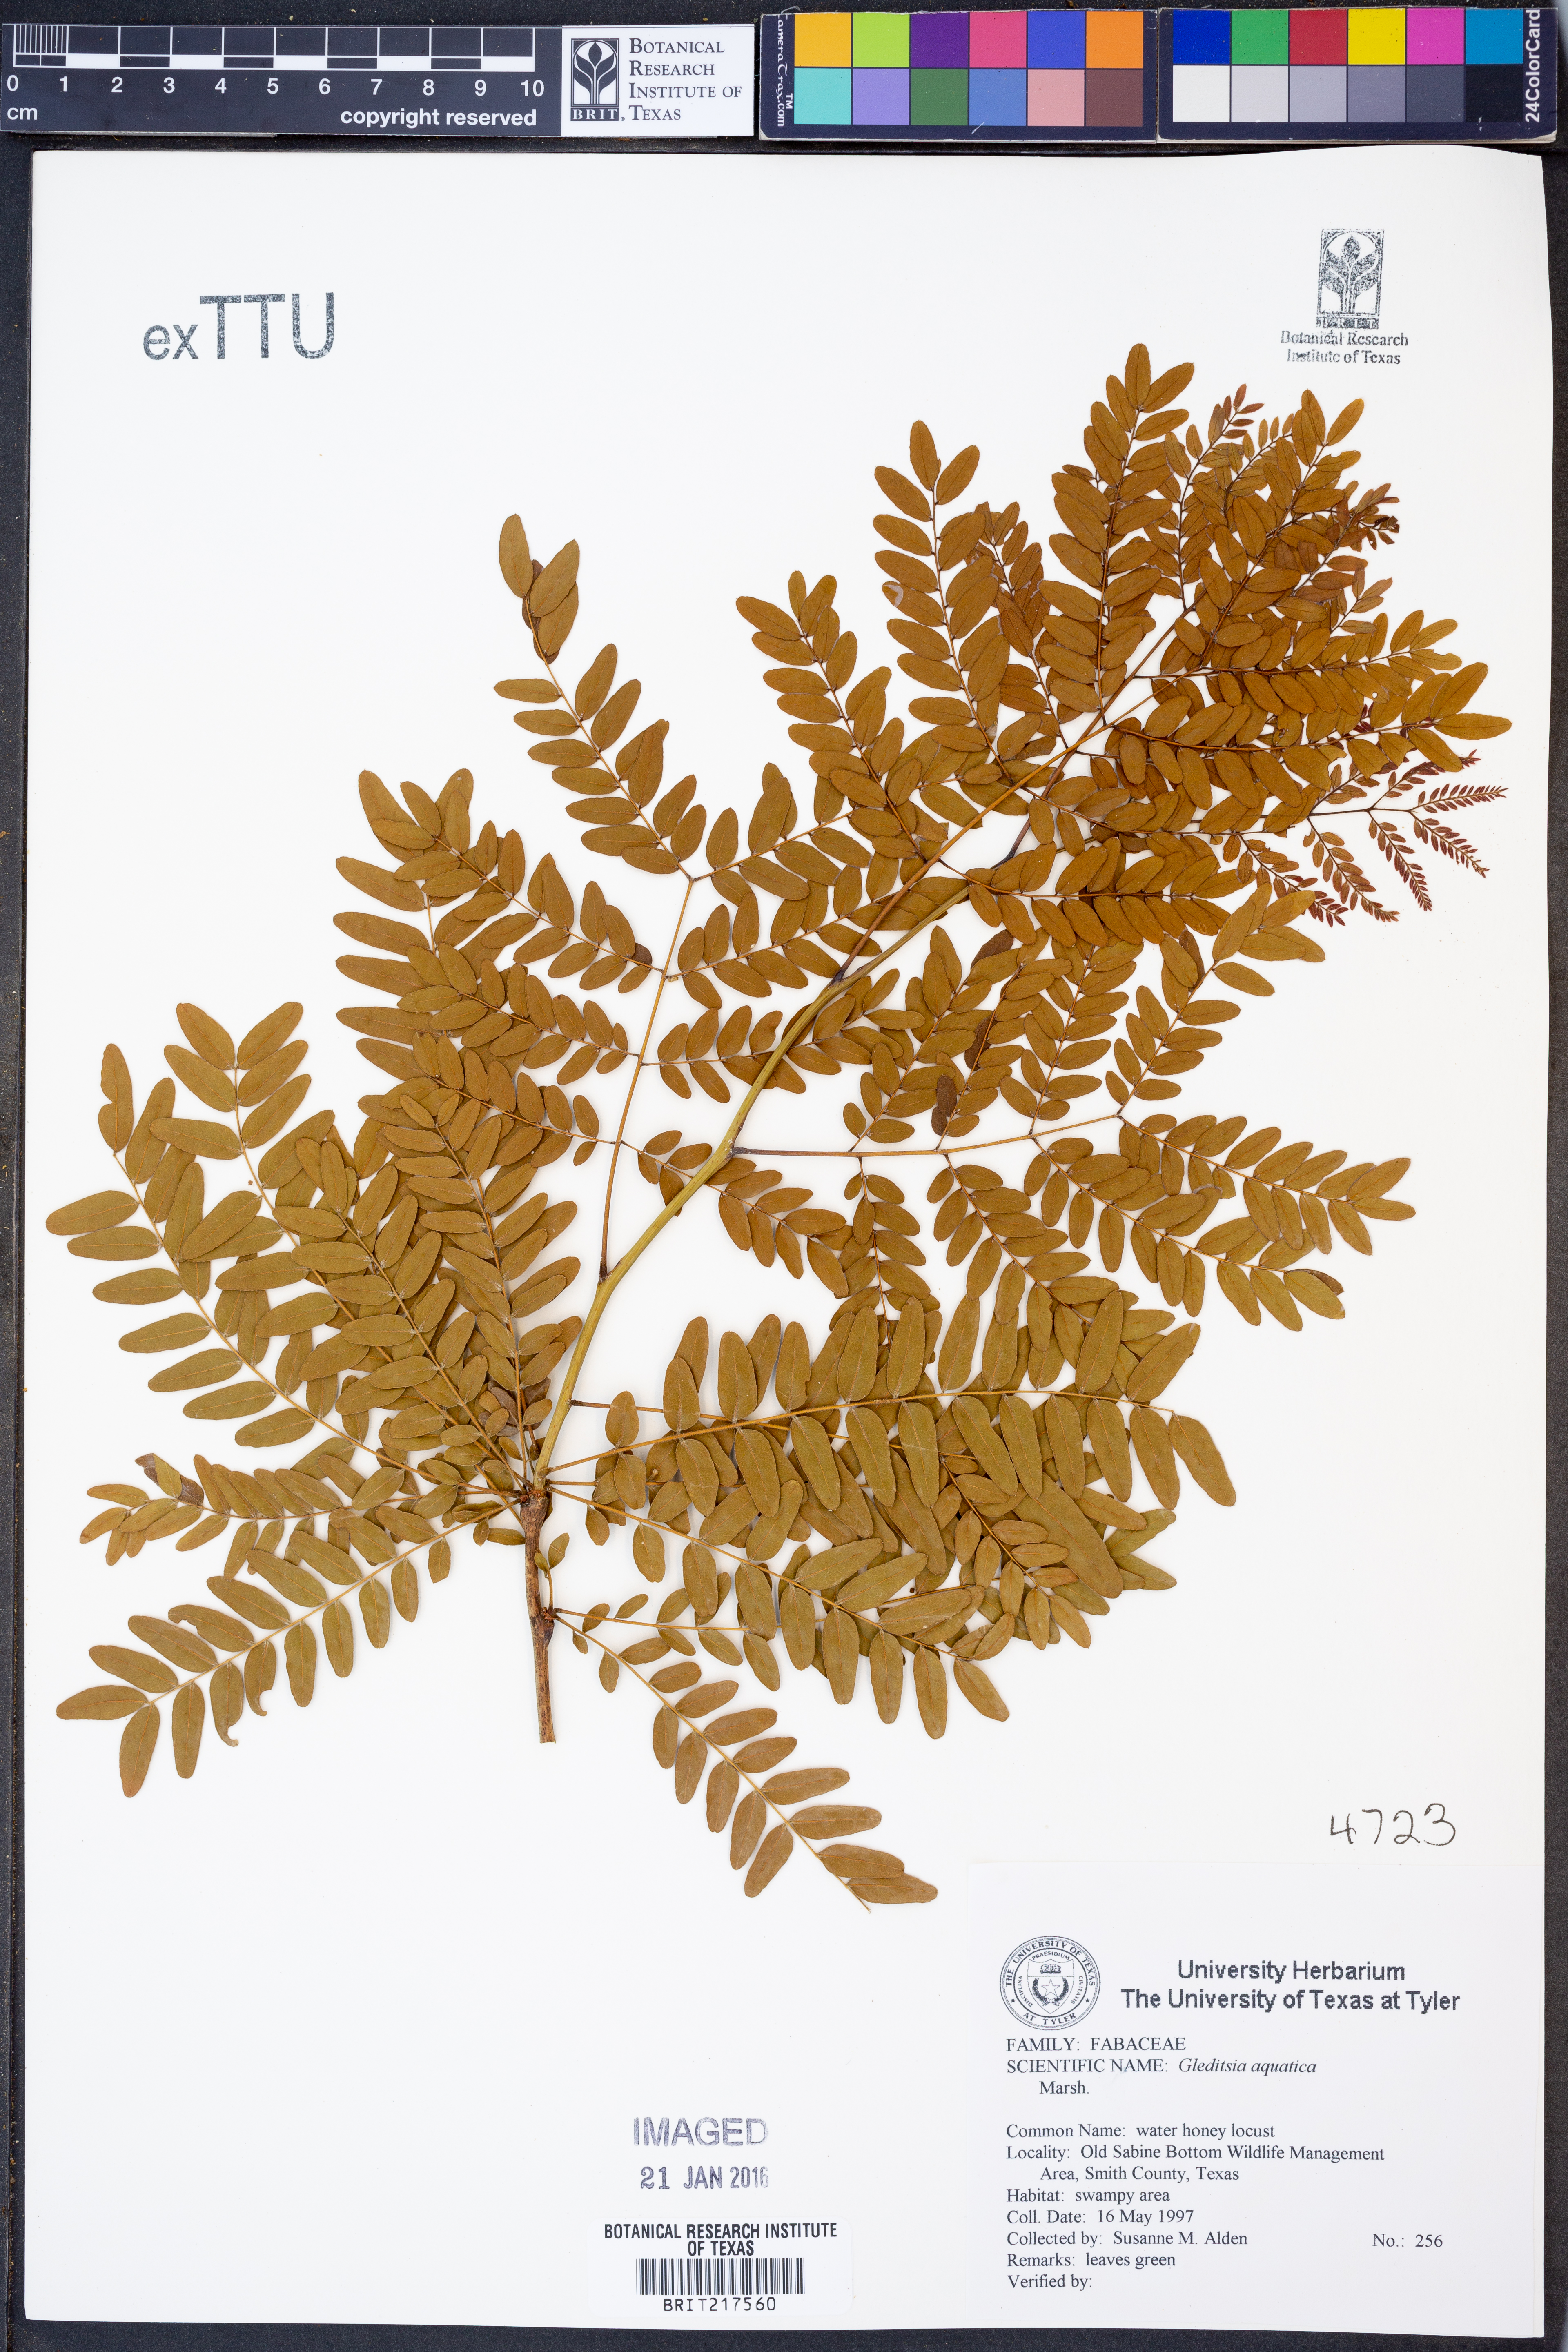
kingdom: Plantae
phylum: Tracheophyta
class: Magnoliopsida
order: Fabales
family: Fabaceae
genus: Gleditsia
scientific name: Gleditsia aquatica
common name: Swamp-locust
